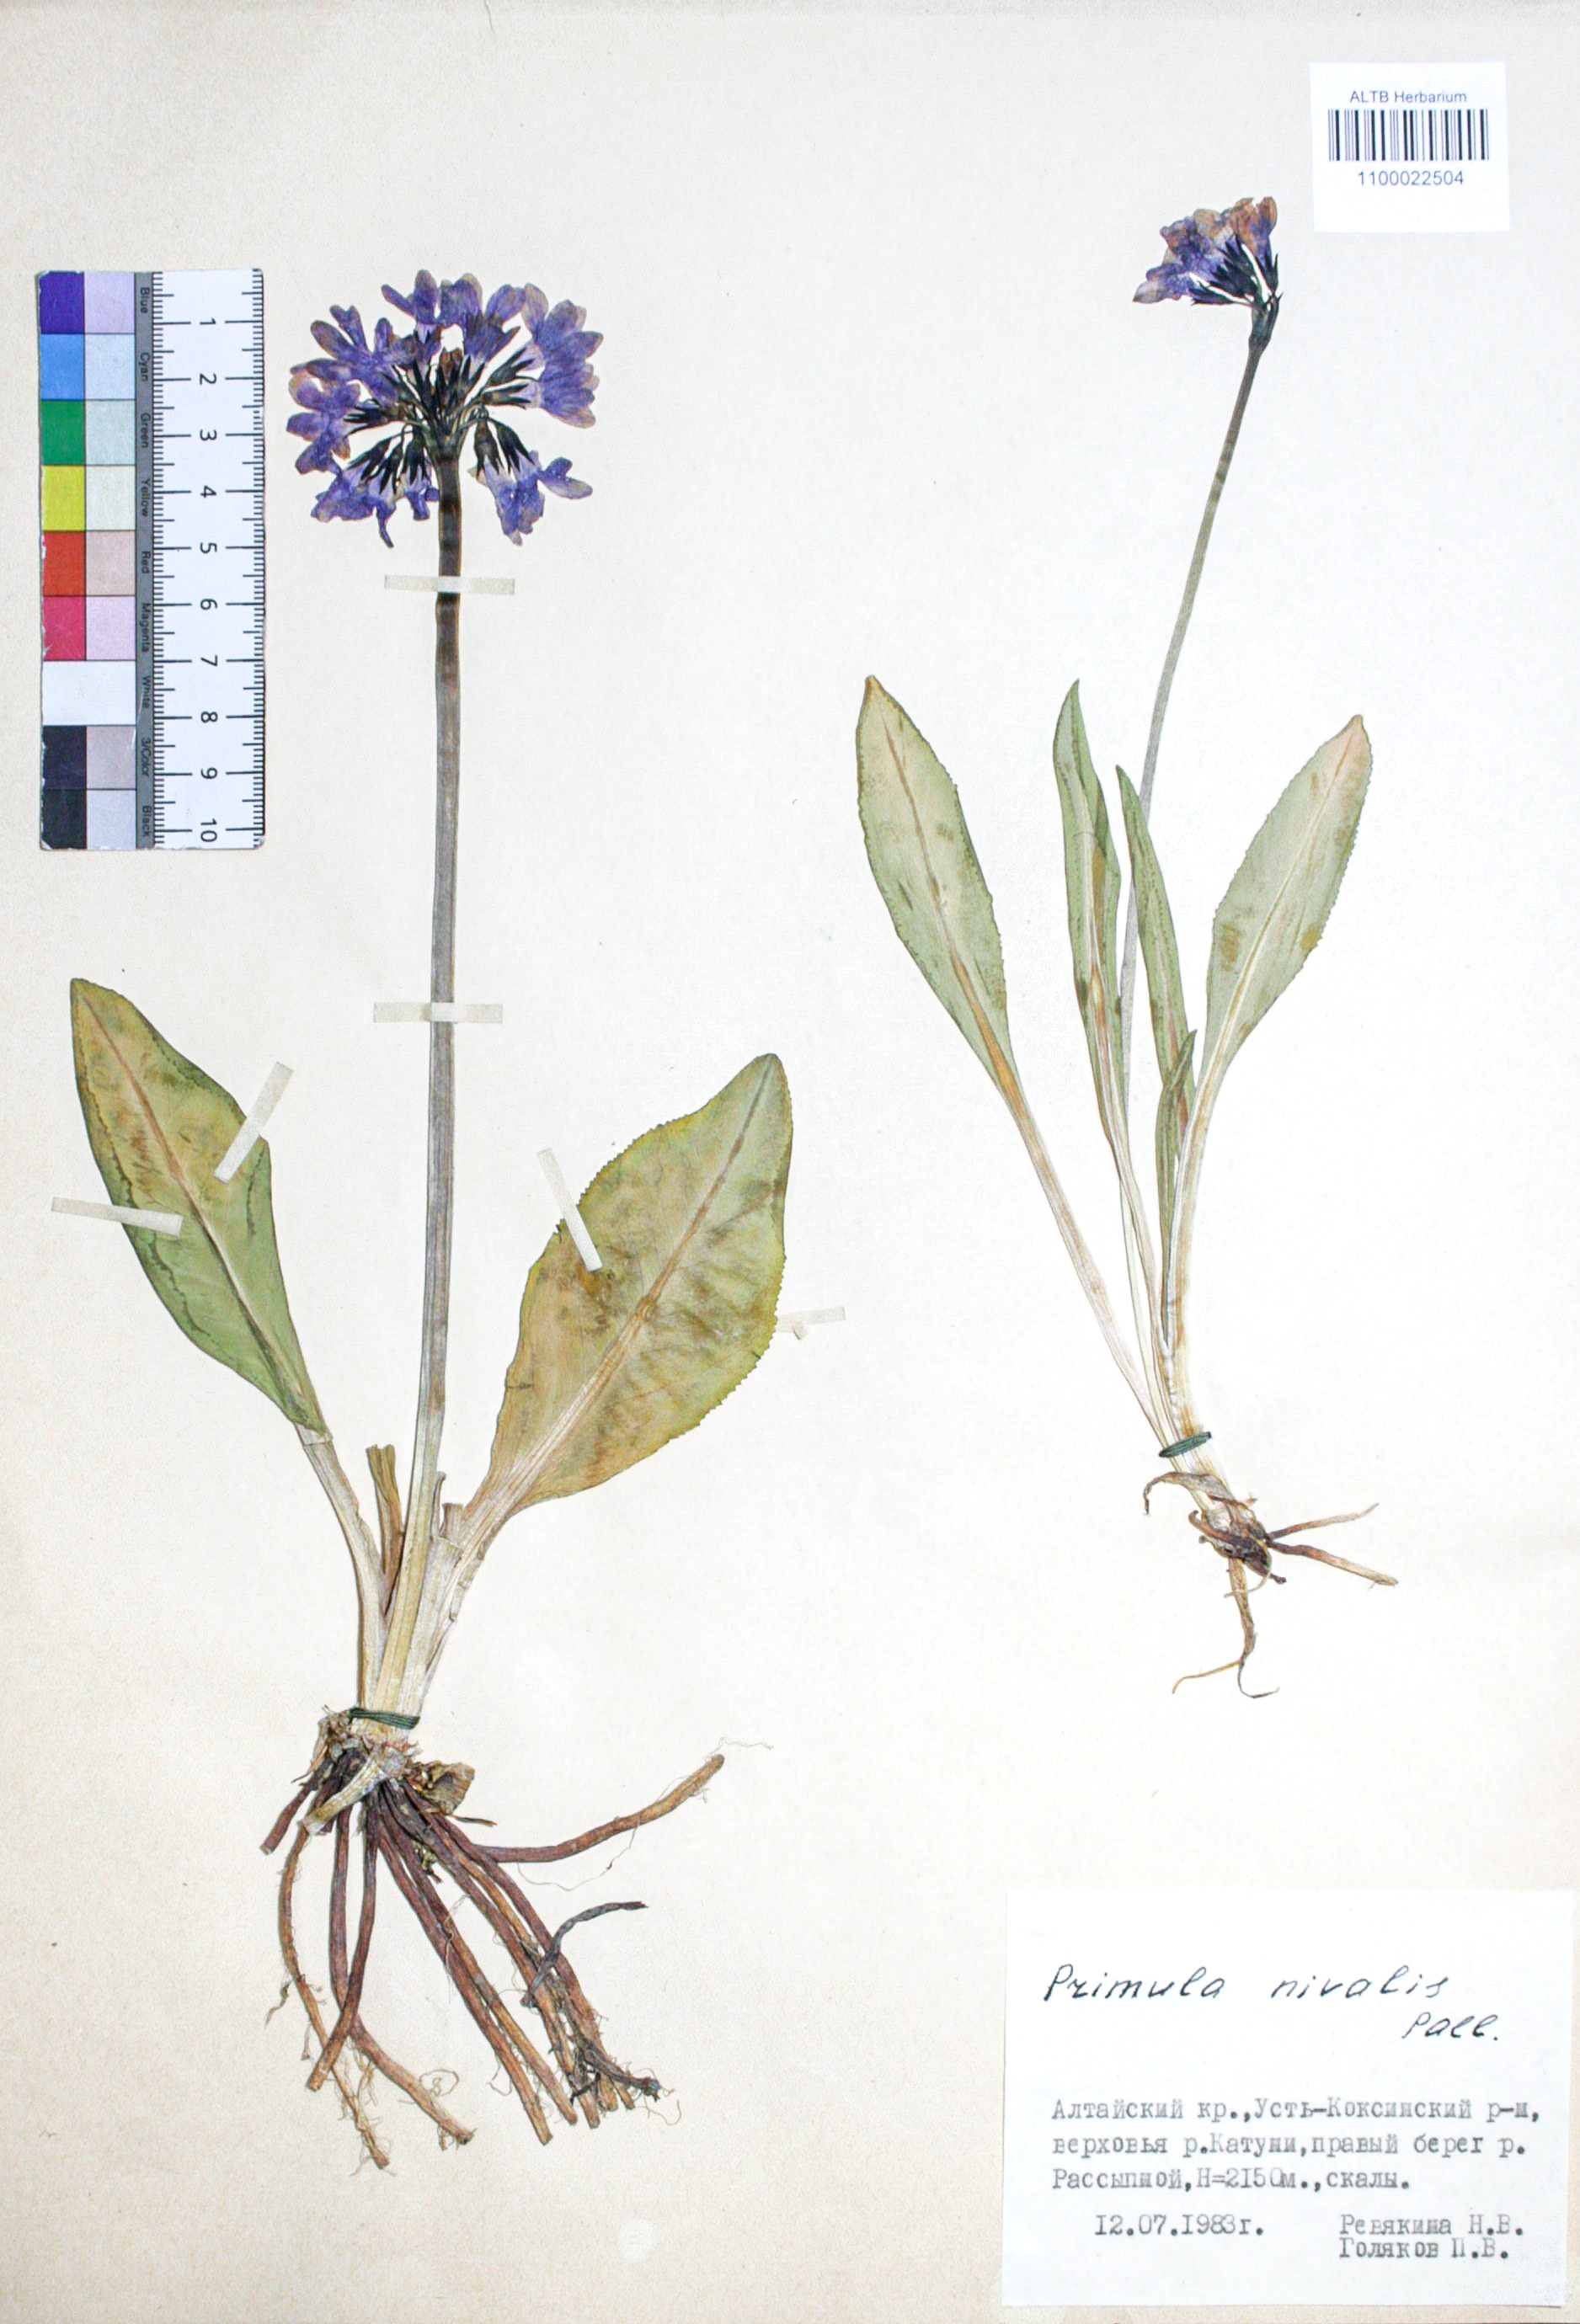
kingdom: Plantae
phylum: Tracheophyta
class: Magnoliopsida
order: Ericales
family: Primulaceae
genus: Primula
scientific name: Primula nivalis
